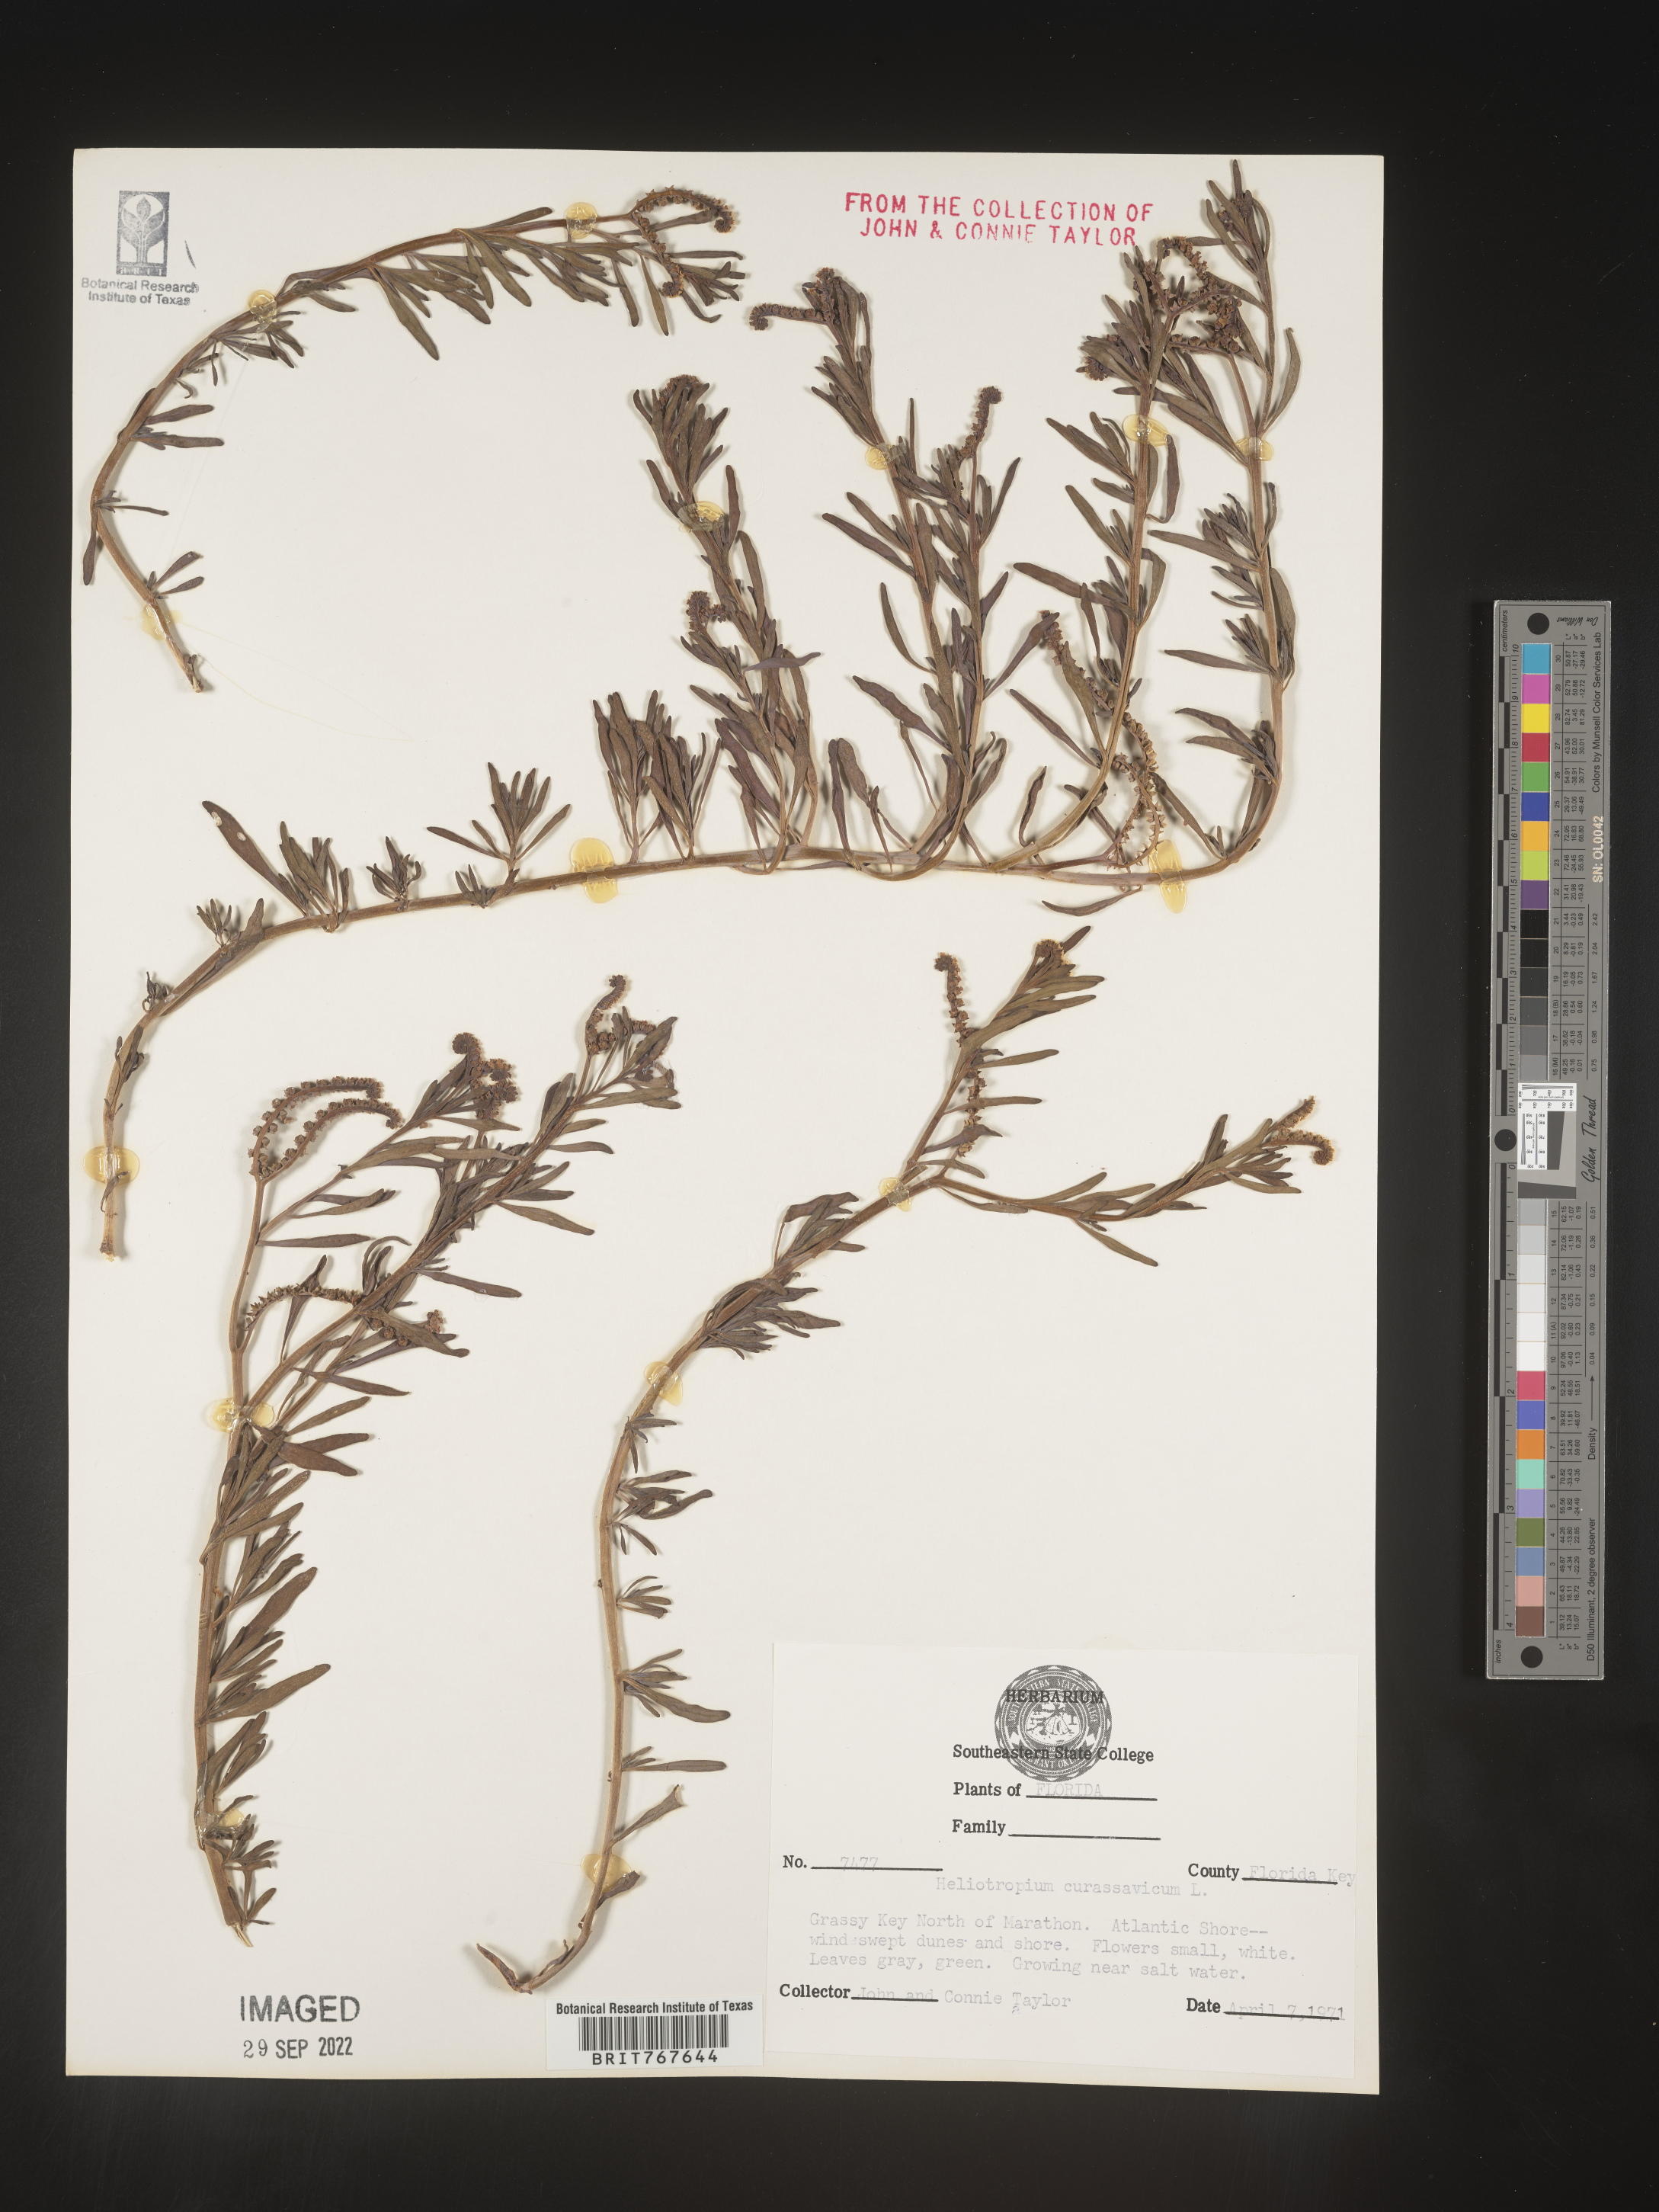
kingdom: Plantae
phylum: Tracheophyta
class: Magnoliopsida
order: Boraginales
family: Heliotropiaceae
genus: Heliotropium
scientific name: Heliotropium curassavicum
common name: Seaside heliotrope
